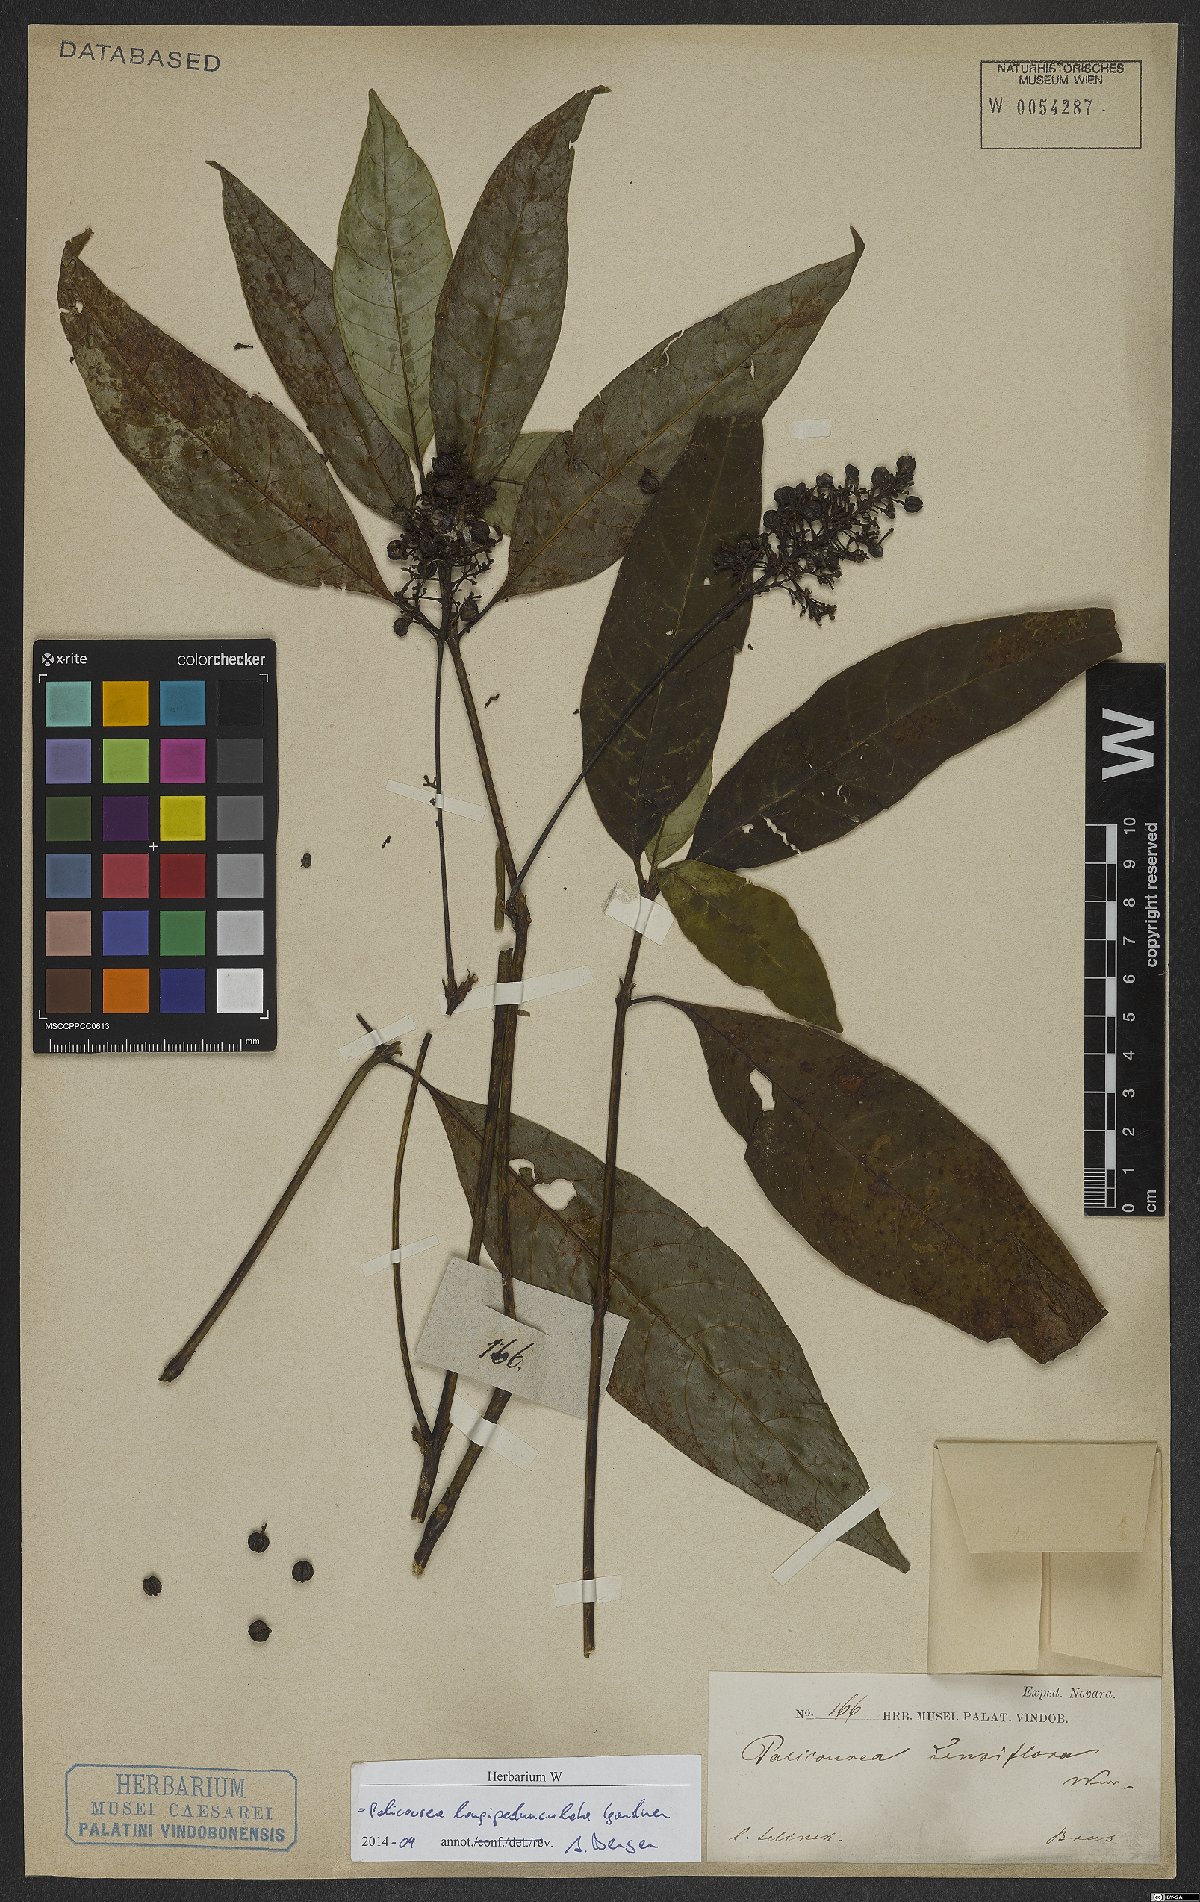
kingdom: Plantae
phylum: Tracheophyta
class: Magnoliopsida
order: Gentianales
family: Rubiaceae
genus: Palicourea
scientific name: Palicourea longipedunculata
